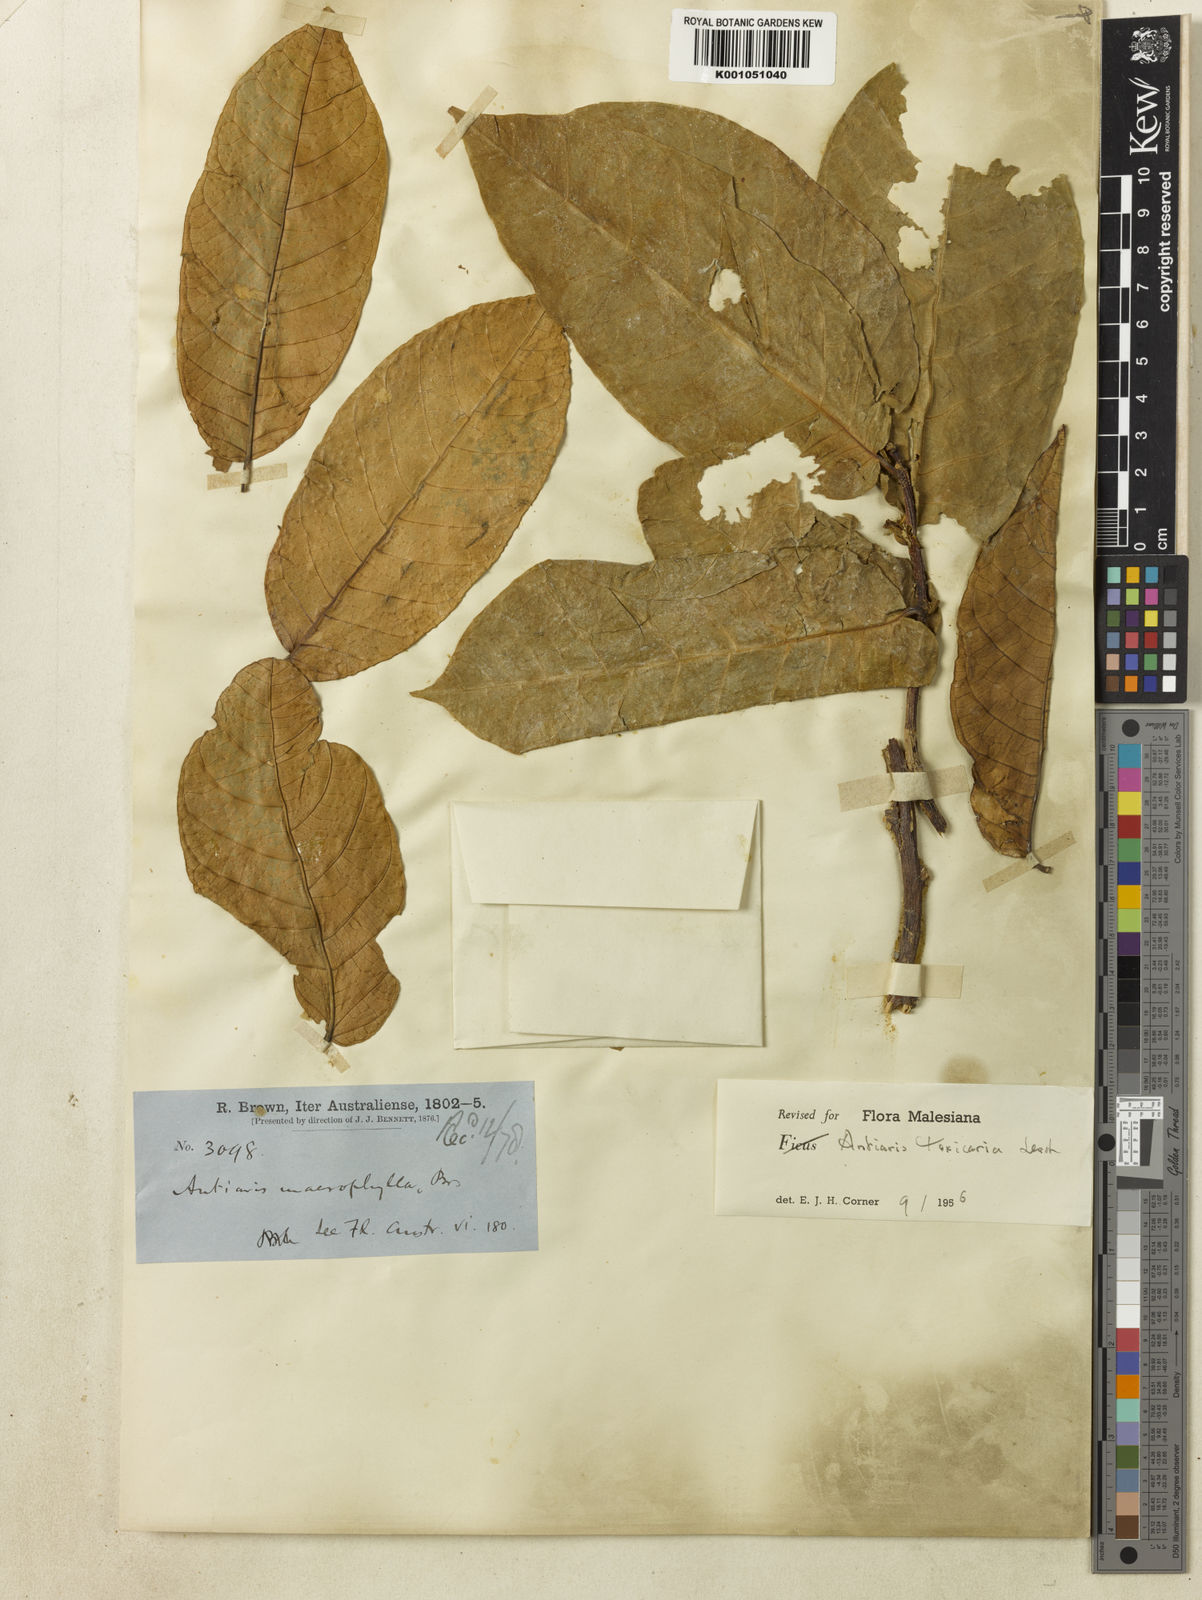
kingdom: Plantae
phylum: Tracheophyta
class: Magnoliopsida
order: Rosales
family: Moraceae
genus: Antiaris
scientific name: Antiaris toxicaria
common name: Sackingtree
